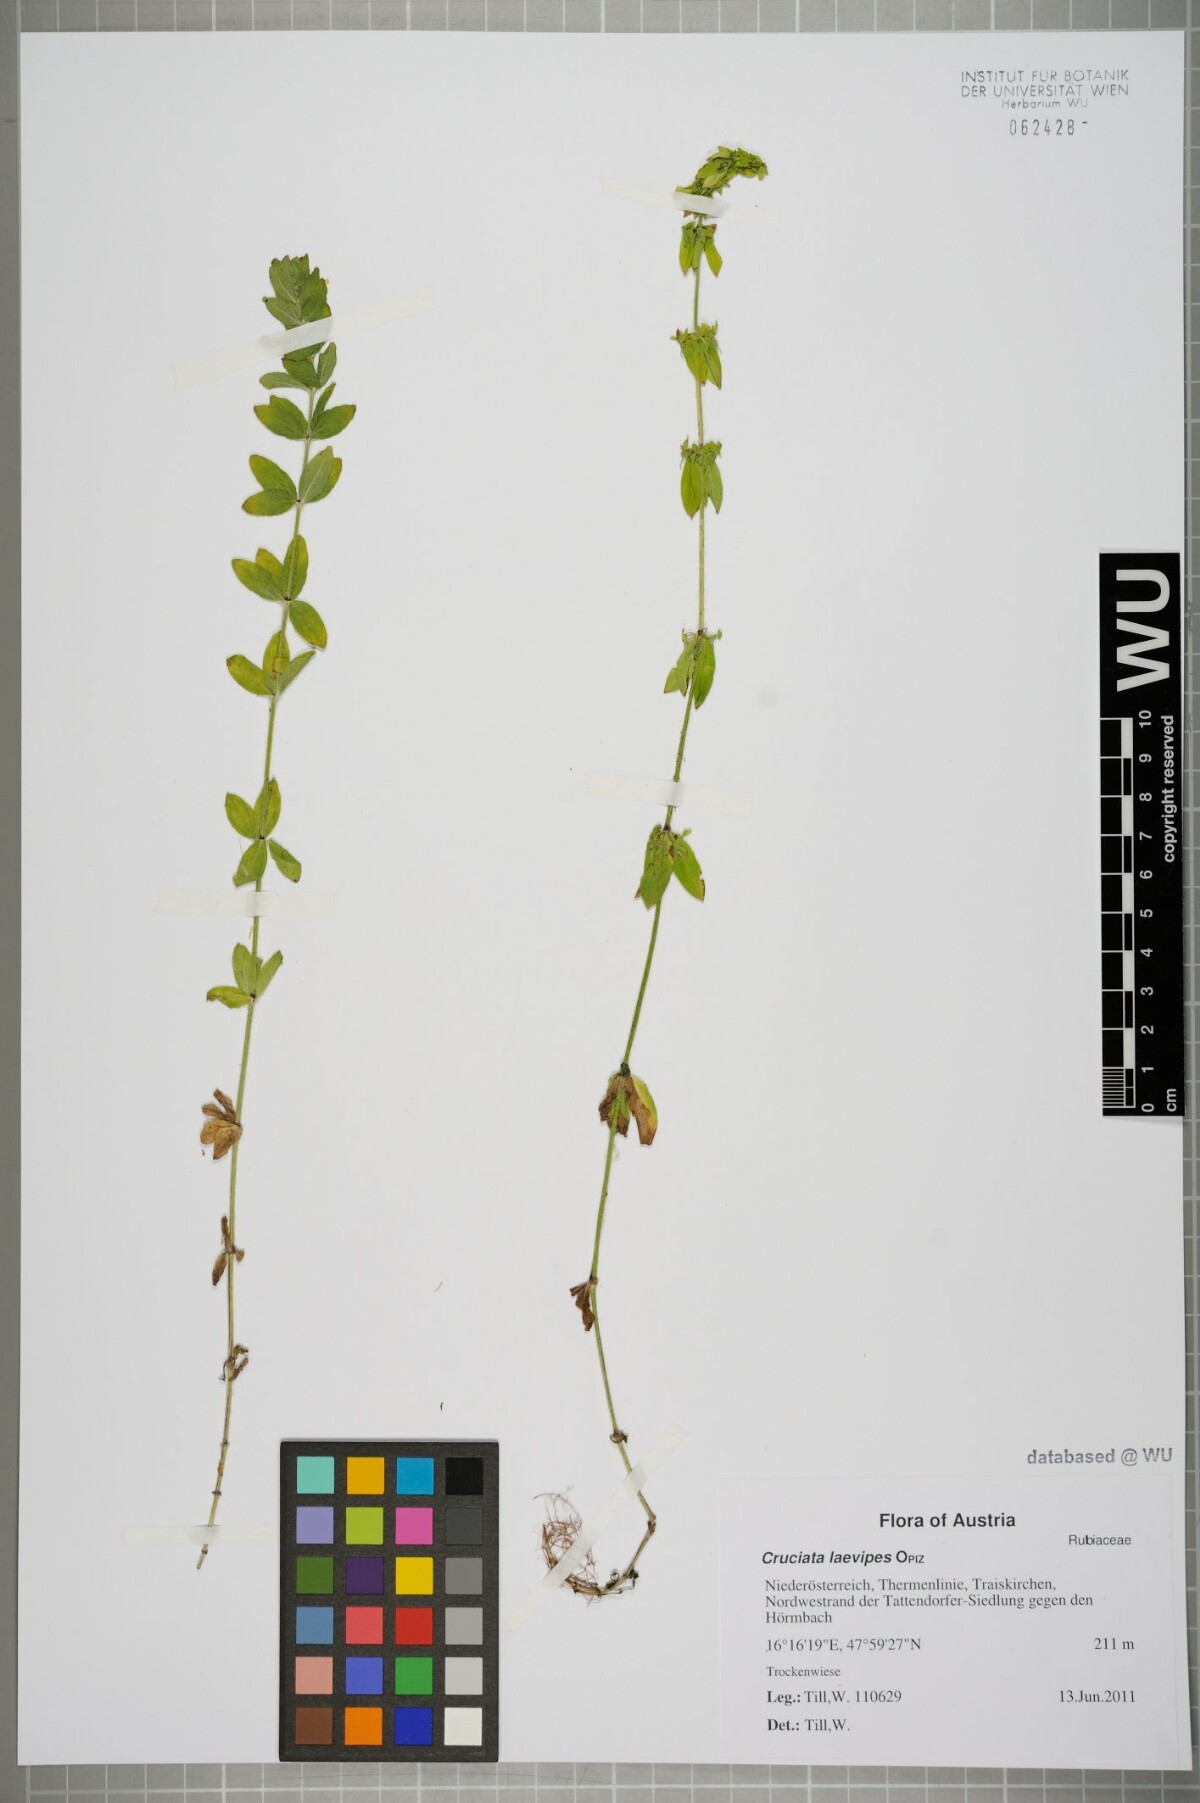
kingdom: Plantae
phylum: Tracheophyta
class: Magnoliopsida
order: Gentianales
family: Rubiaceae
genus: Cruciata
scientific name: Cruciata laevipes
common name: Crosswort
